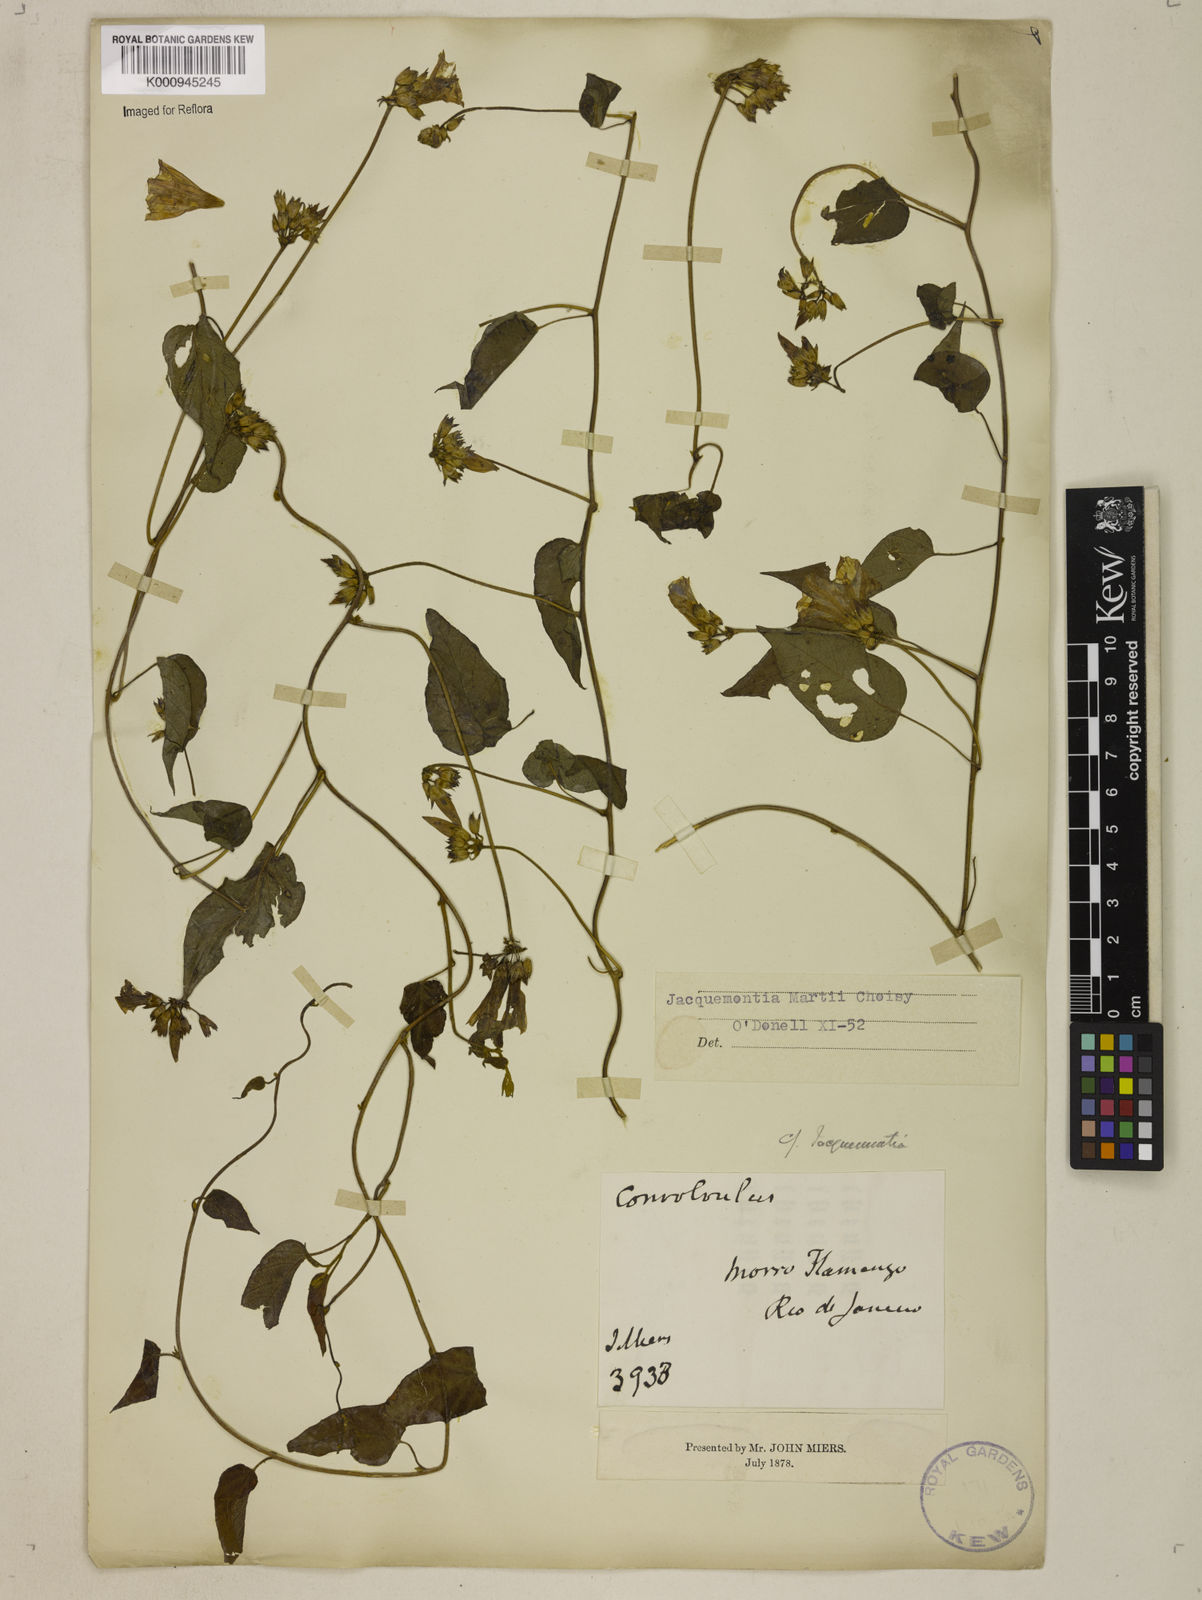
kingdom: Plantae
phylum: Tracheophyta
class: Magnoliopsida
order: Solanales
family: Convolvulaceae
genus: Jacquemontia
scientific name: Jacquemontia martii
